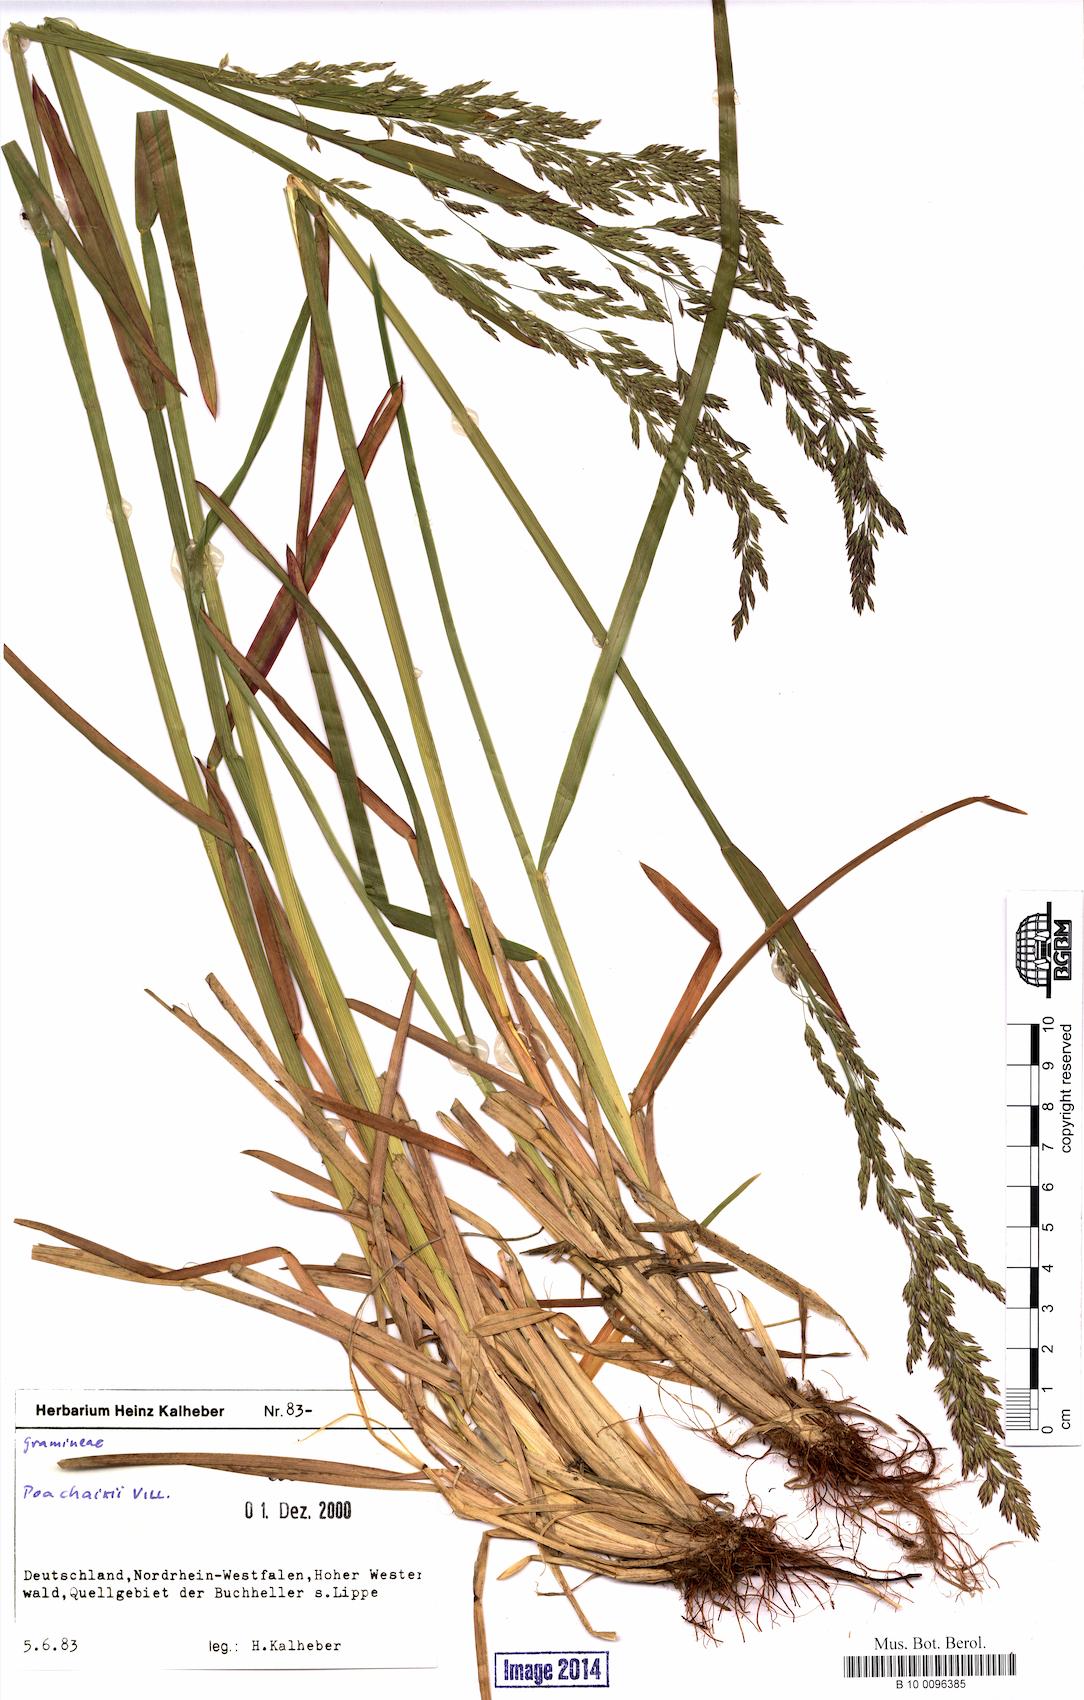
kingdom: Plantae
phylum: Tracheophyta
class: Liliopsida
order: Poales
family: Poaceae
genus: Poa
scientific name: Poa chaixii
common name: Broad-leaved meadow-grass
